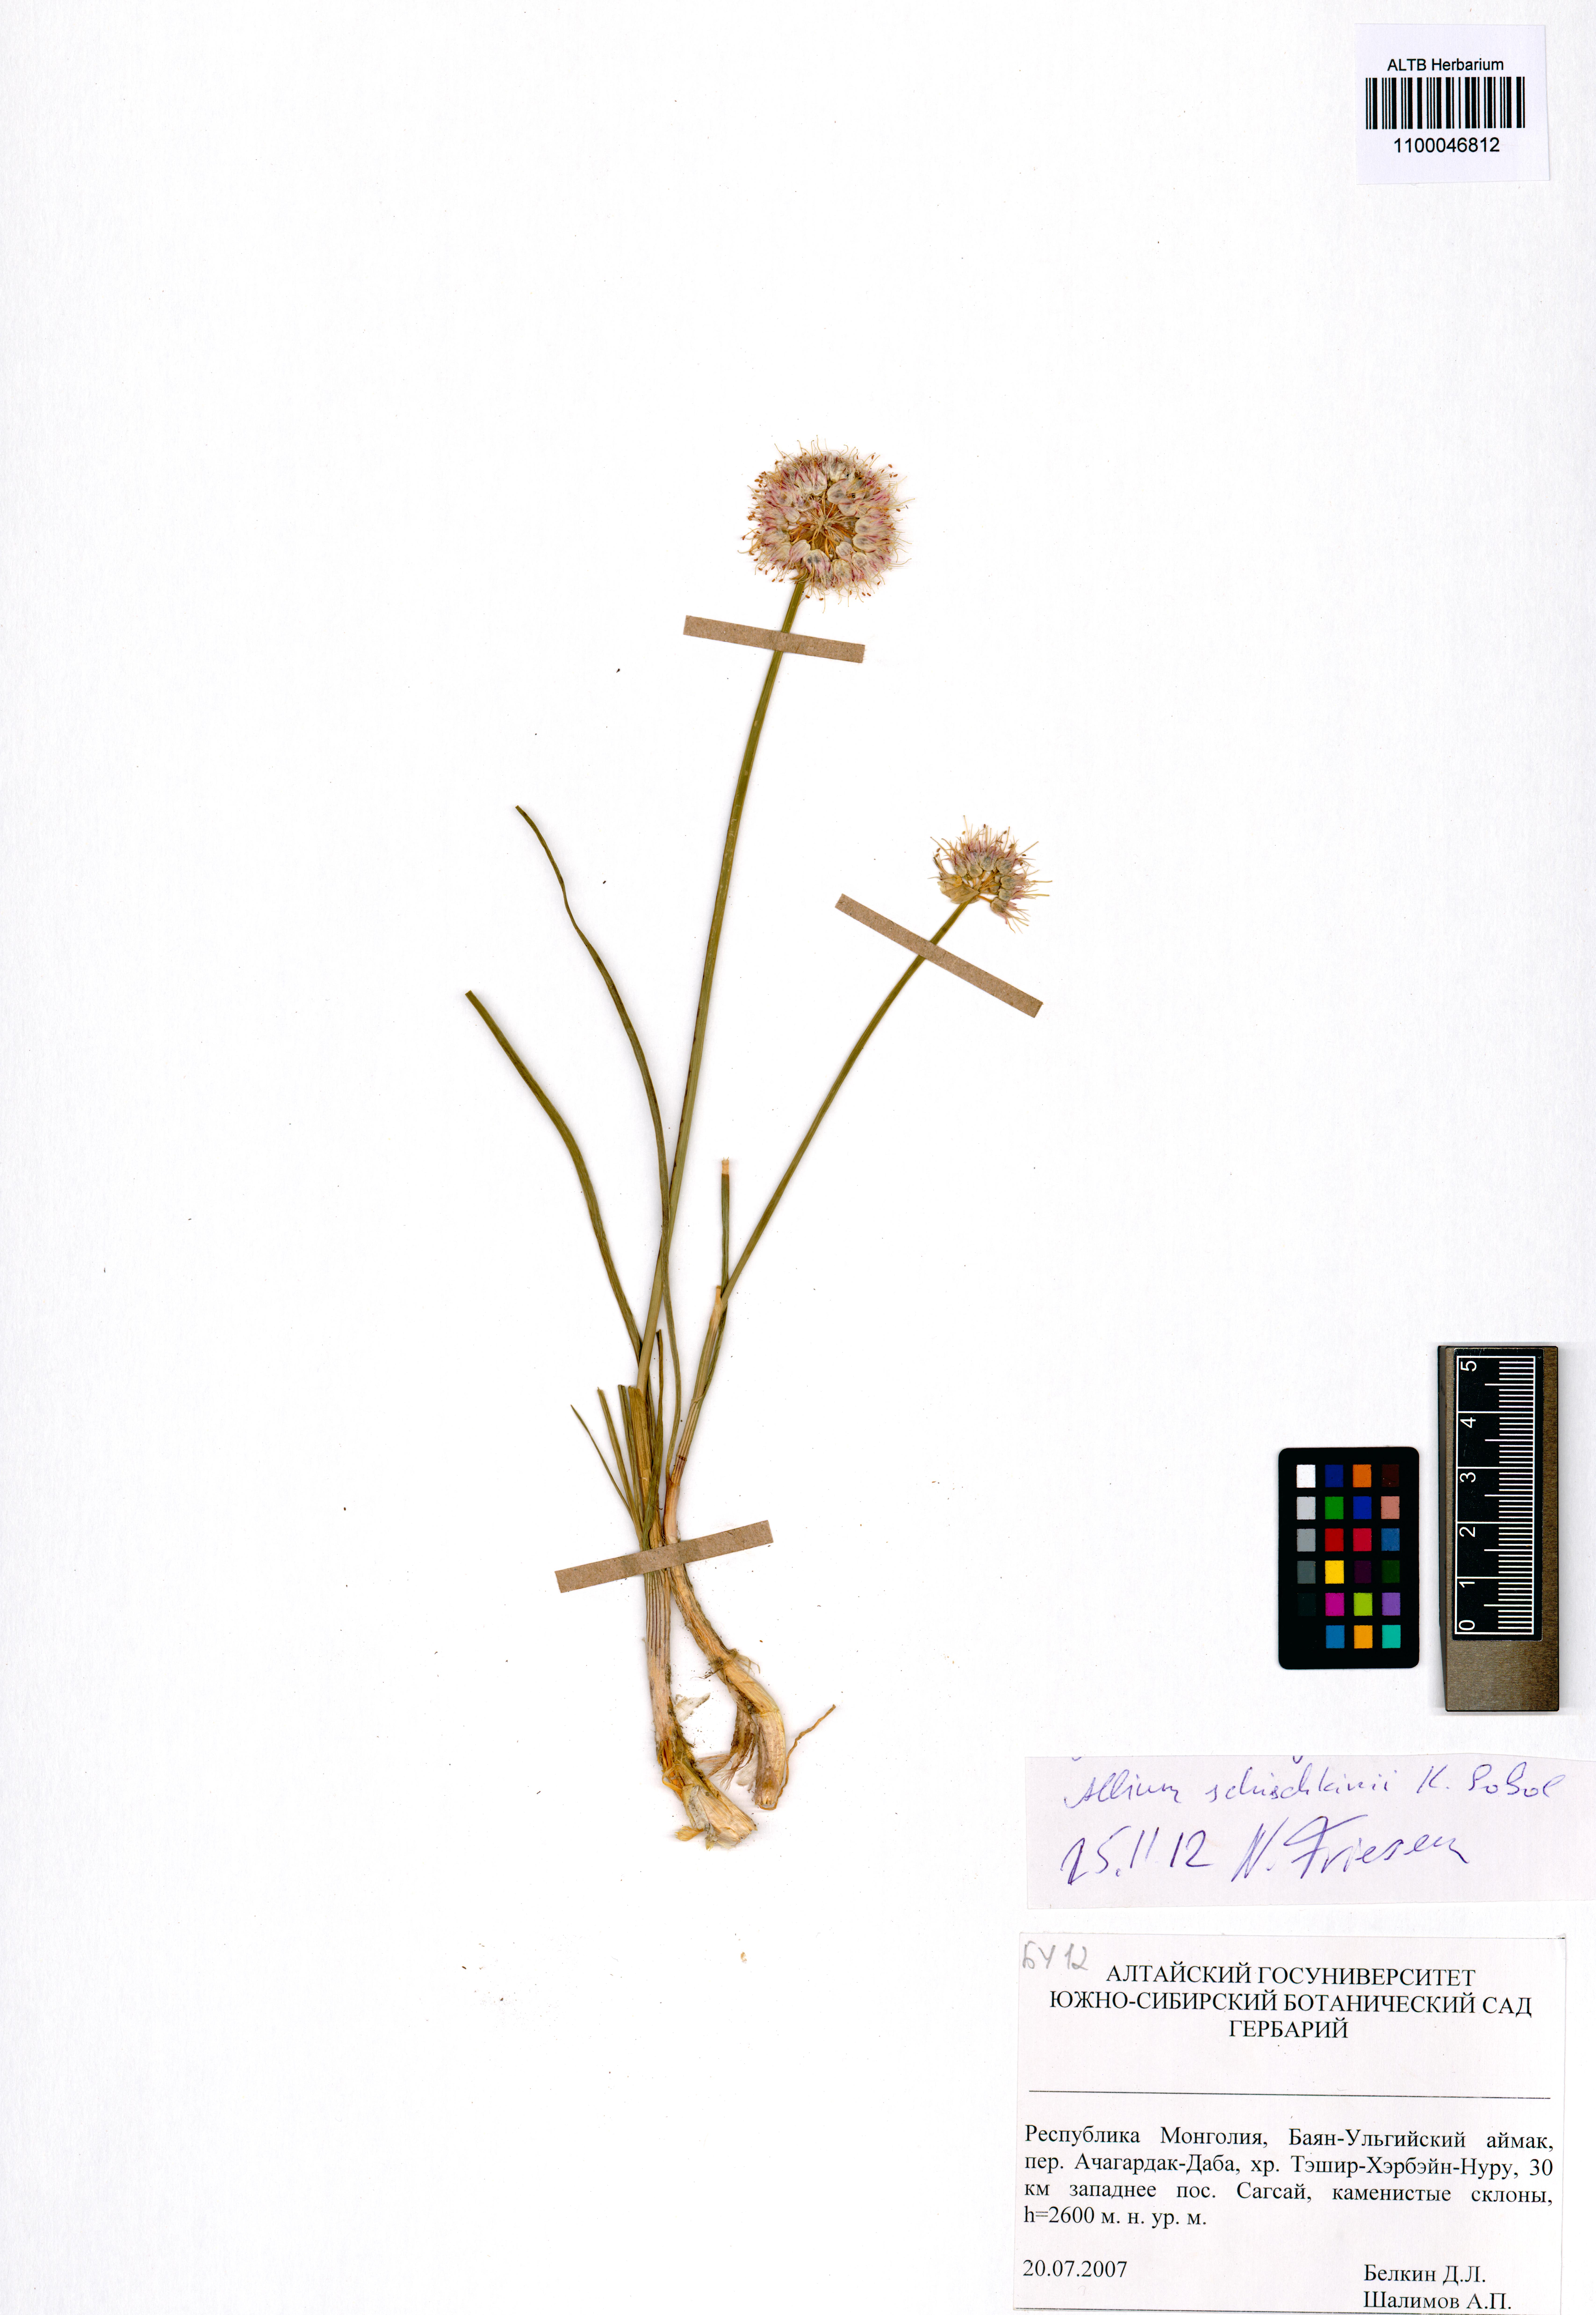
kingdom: Plantae
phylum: Tracheophyta
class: Liliopsida
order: Asparagales
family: Amaryllidaceae
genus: Allium
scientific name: Allium schischkinii
